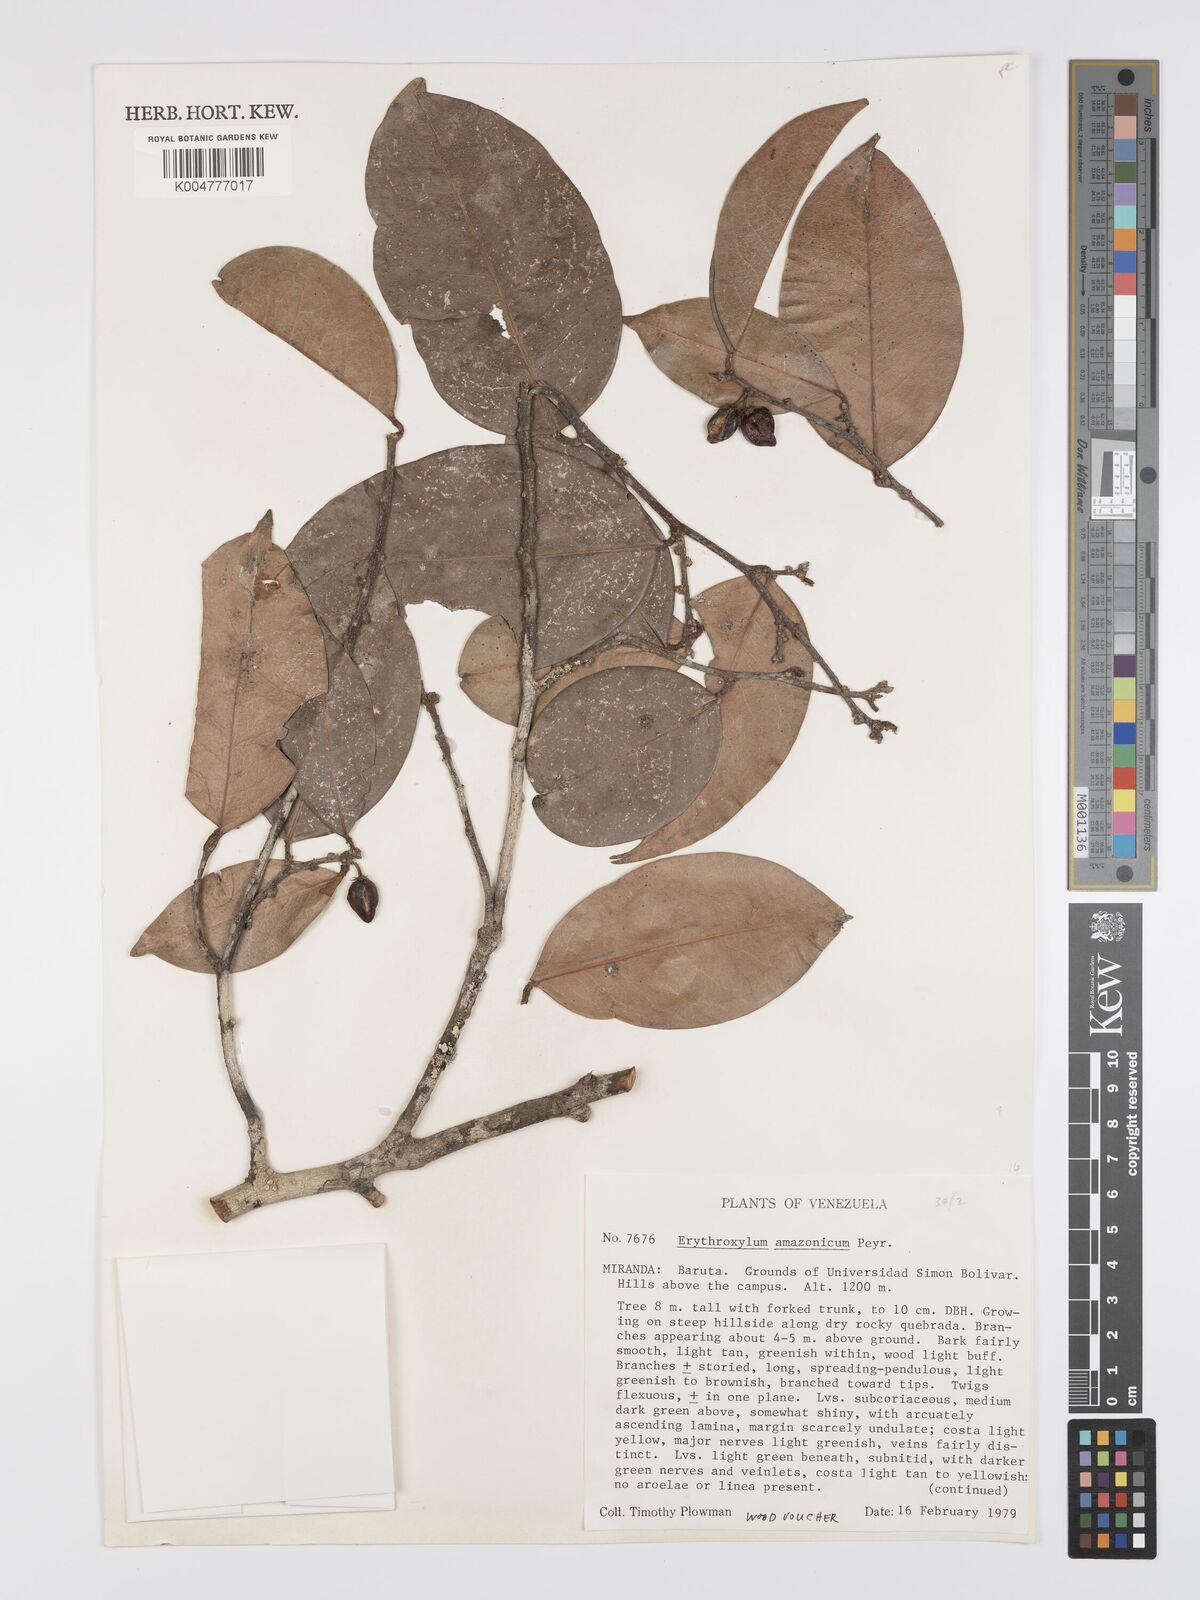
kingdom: Plantae
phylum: Tracheophyta
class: Magnoliopsida
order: Malpighiales
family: Erythroxylaceae
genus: Erythroxylum
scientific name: Erythroxylum amazonicum
